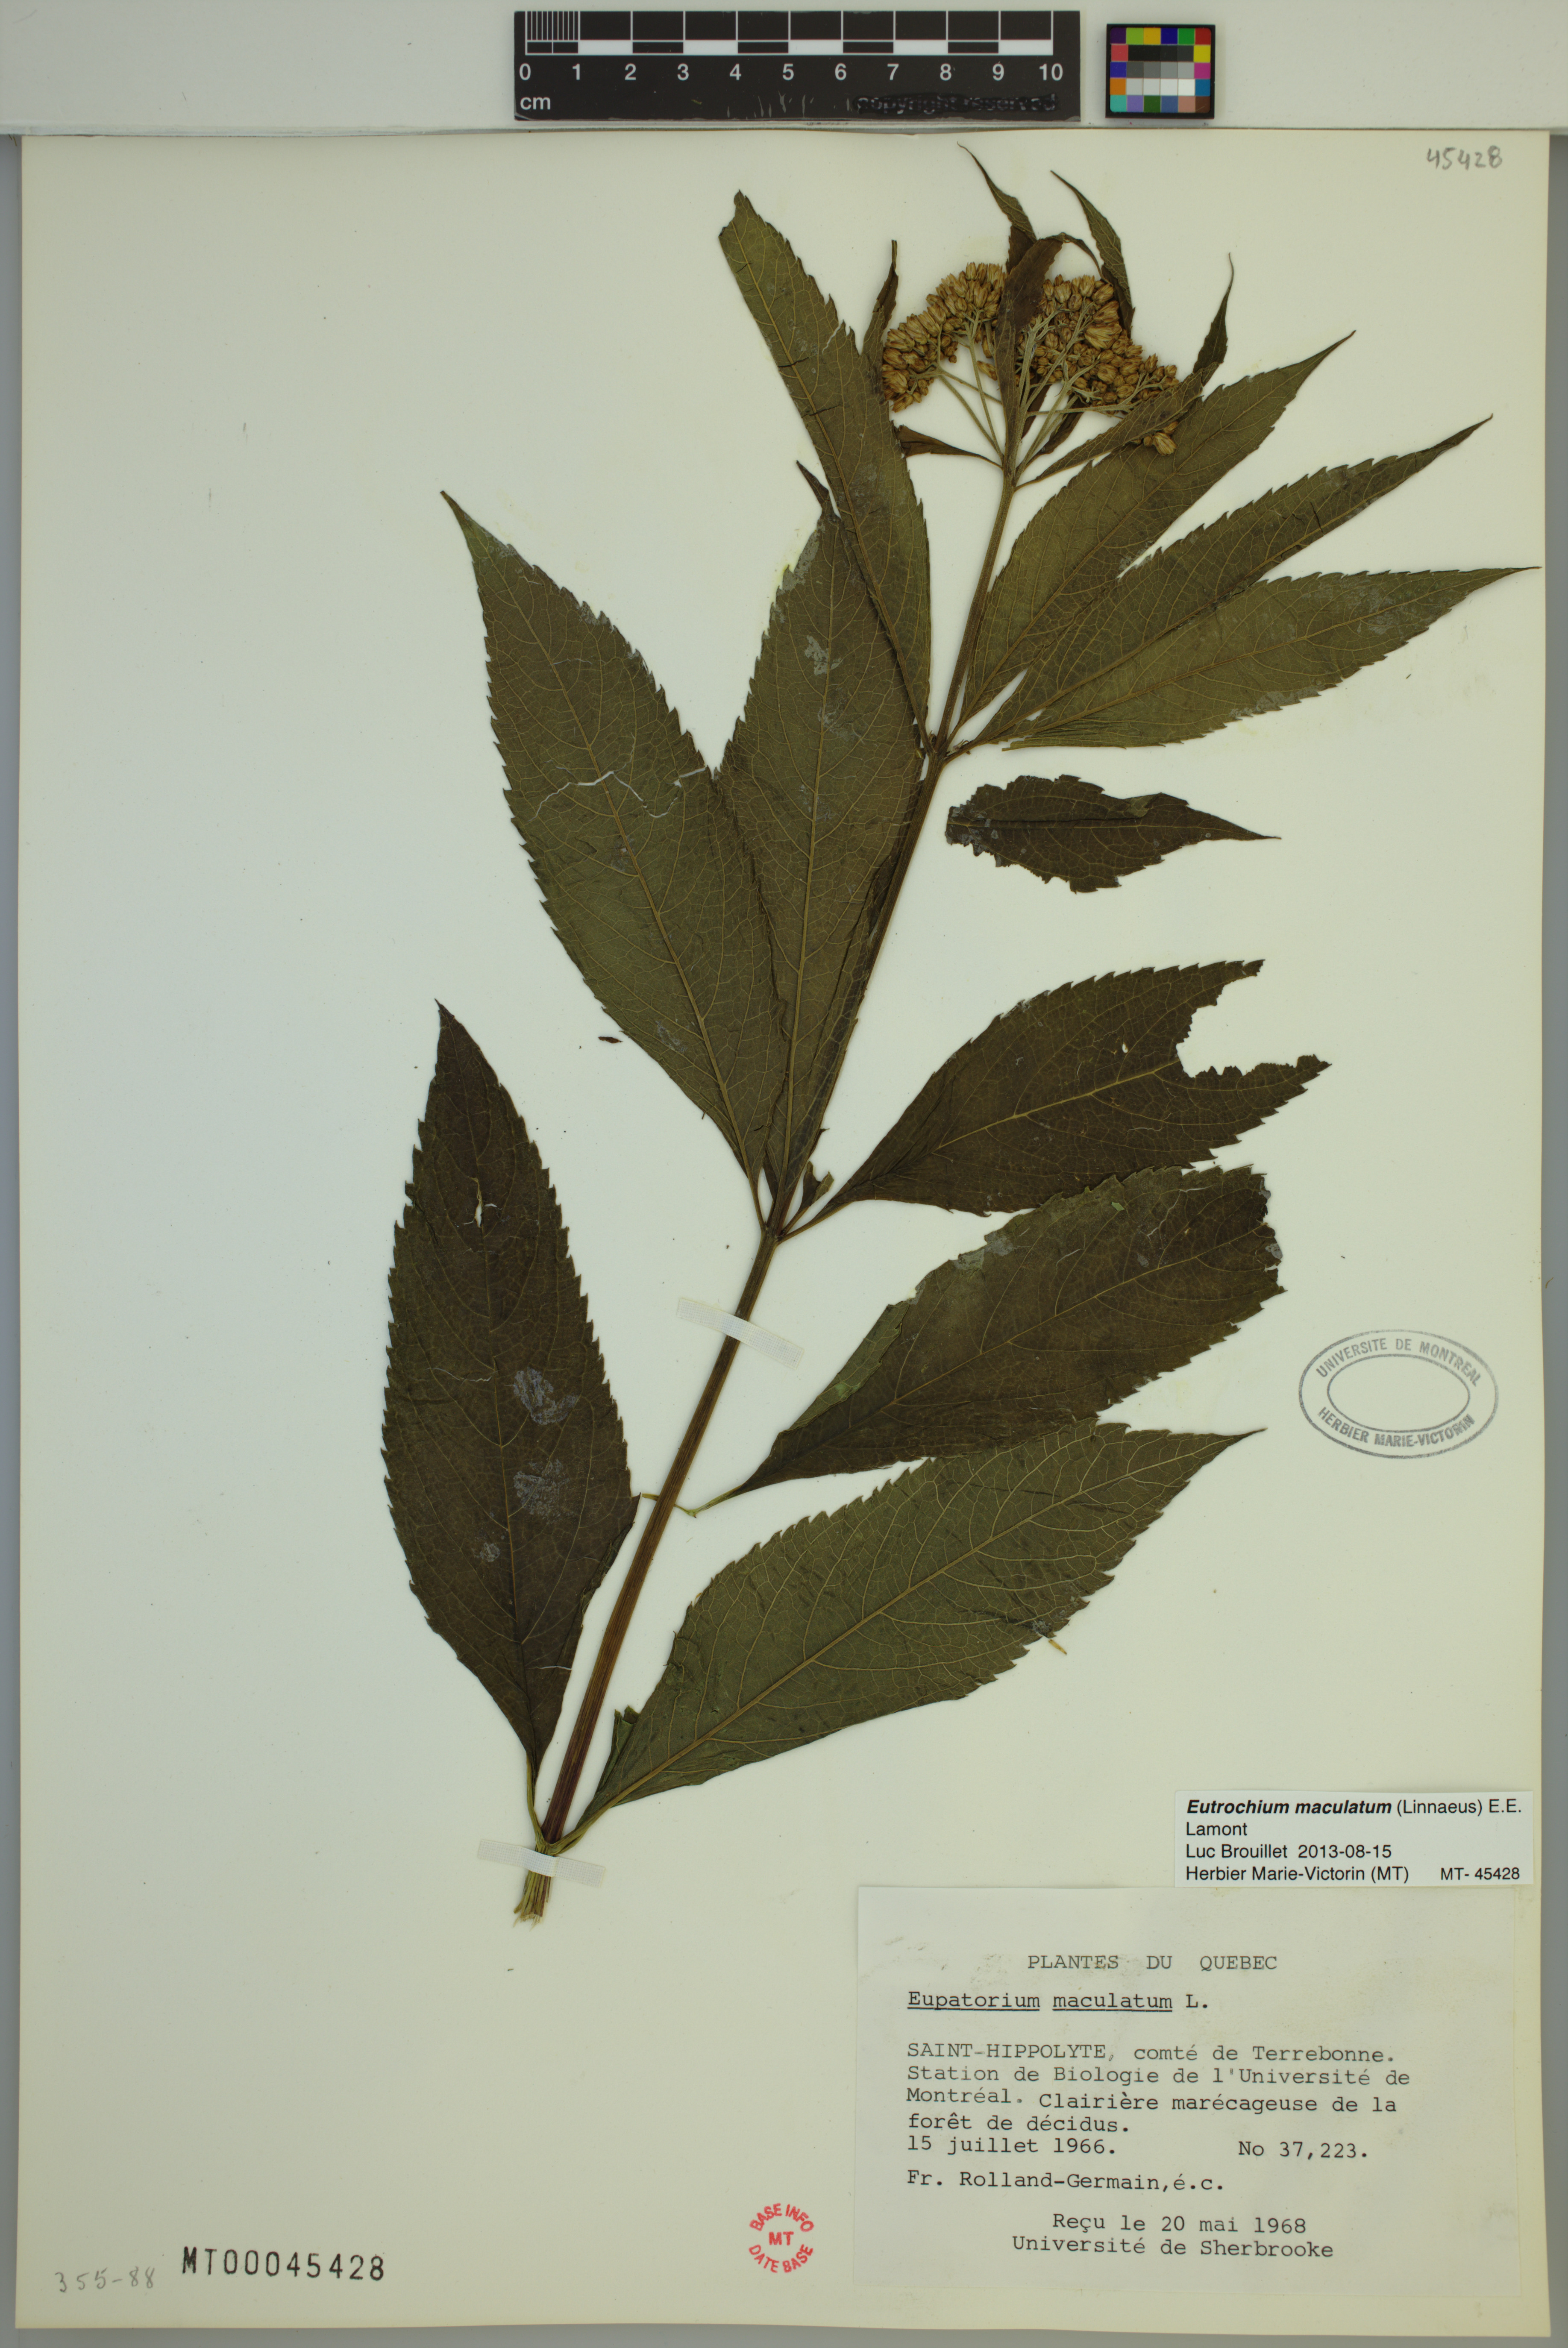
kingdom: Plantae
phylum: Tracheophyta
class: Magnoliopsida
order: Asterales
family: Asteraceae
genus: Eutrochium
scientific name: Eutrochium maculatum
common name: Spotted joe pye weed
